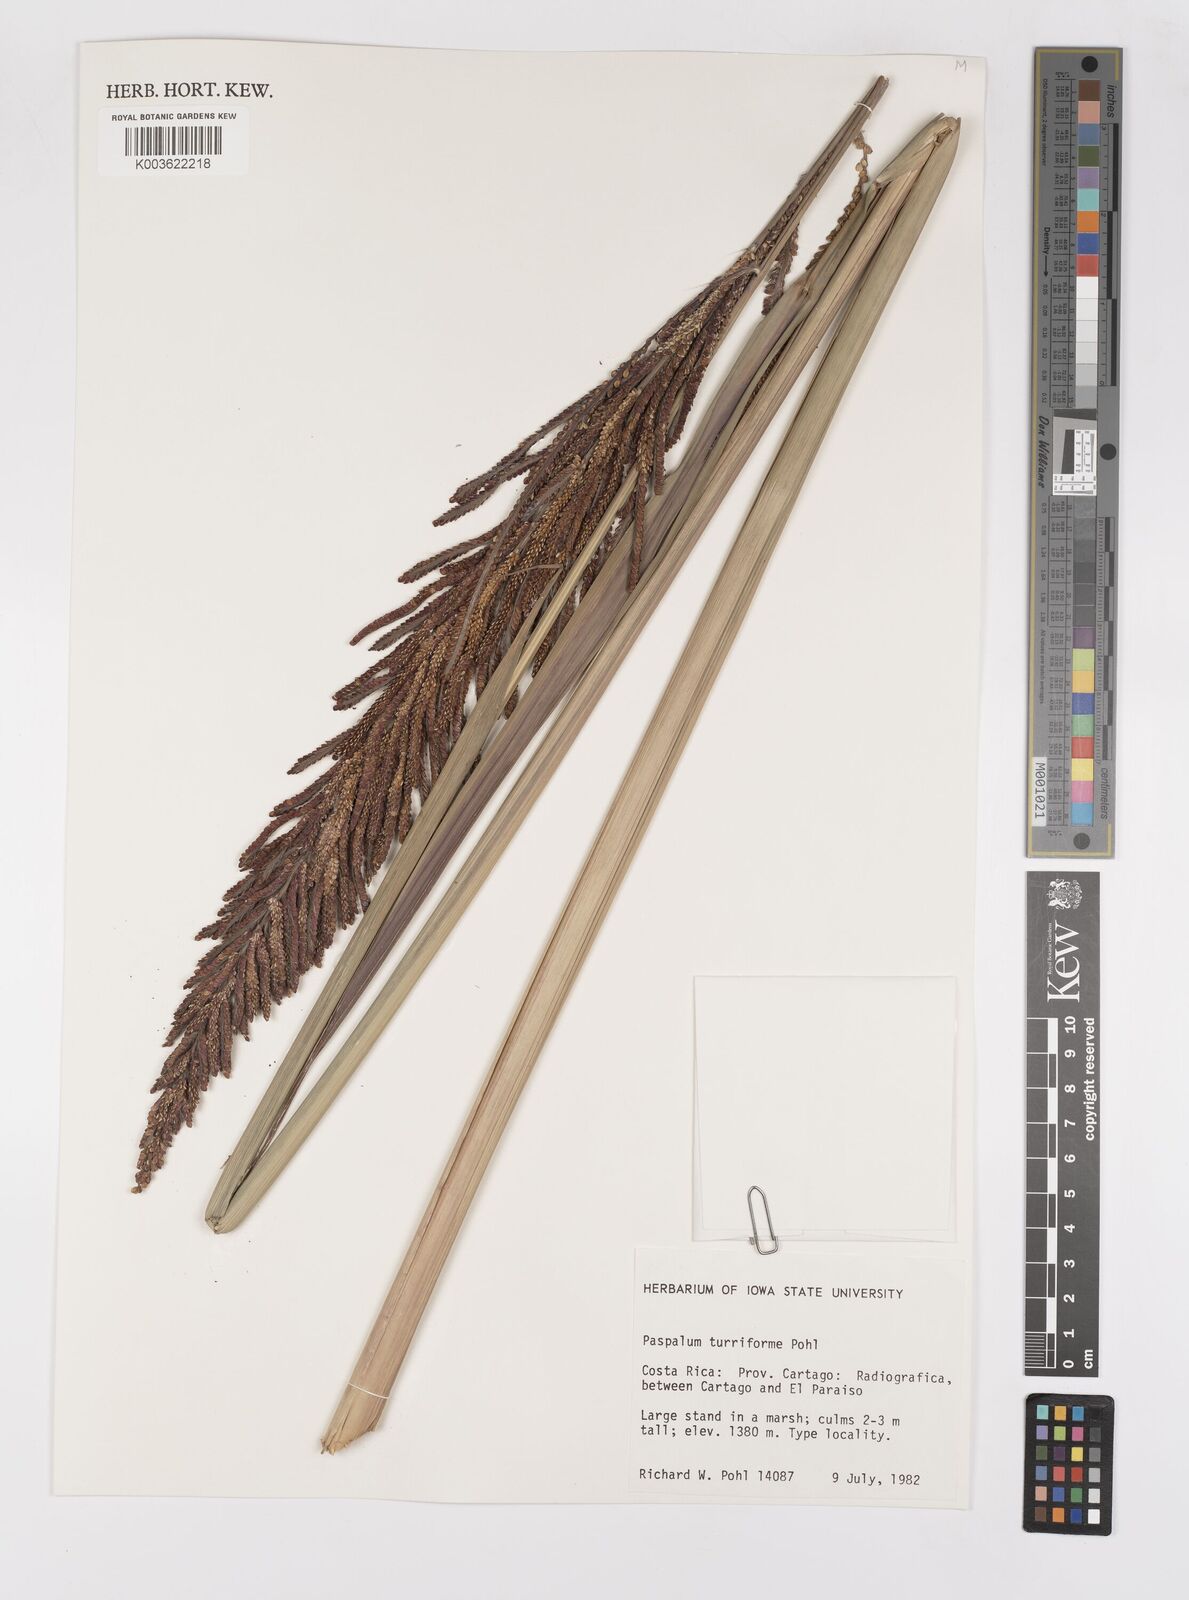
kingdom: Plantae
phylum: Tracheophyta
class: Liliopsida
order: Poales
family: Poaceae
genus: Paspalum
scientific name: Paspalum turriforme
